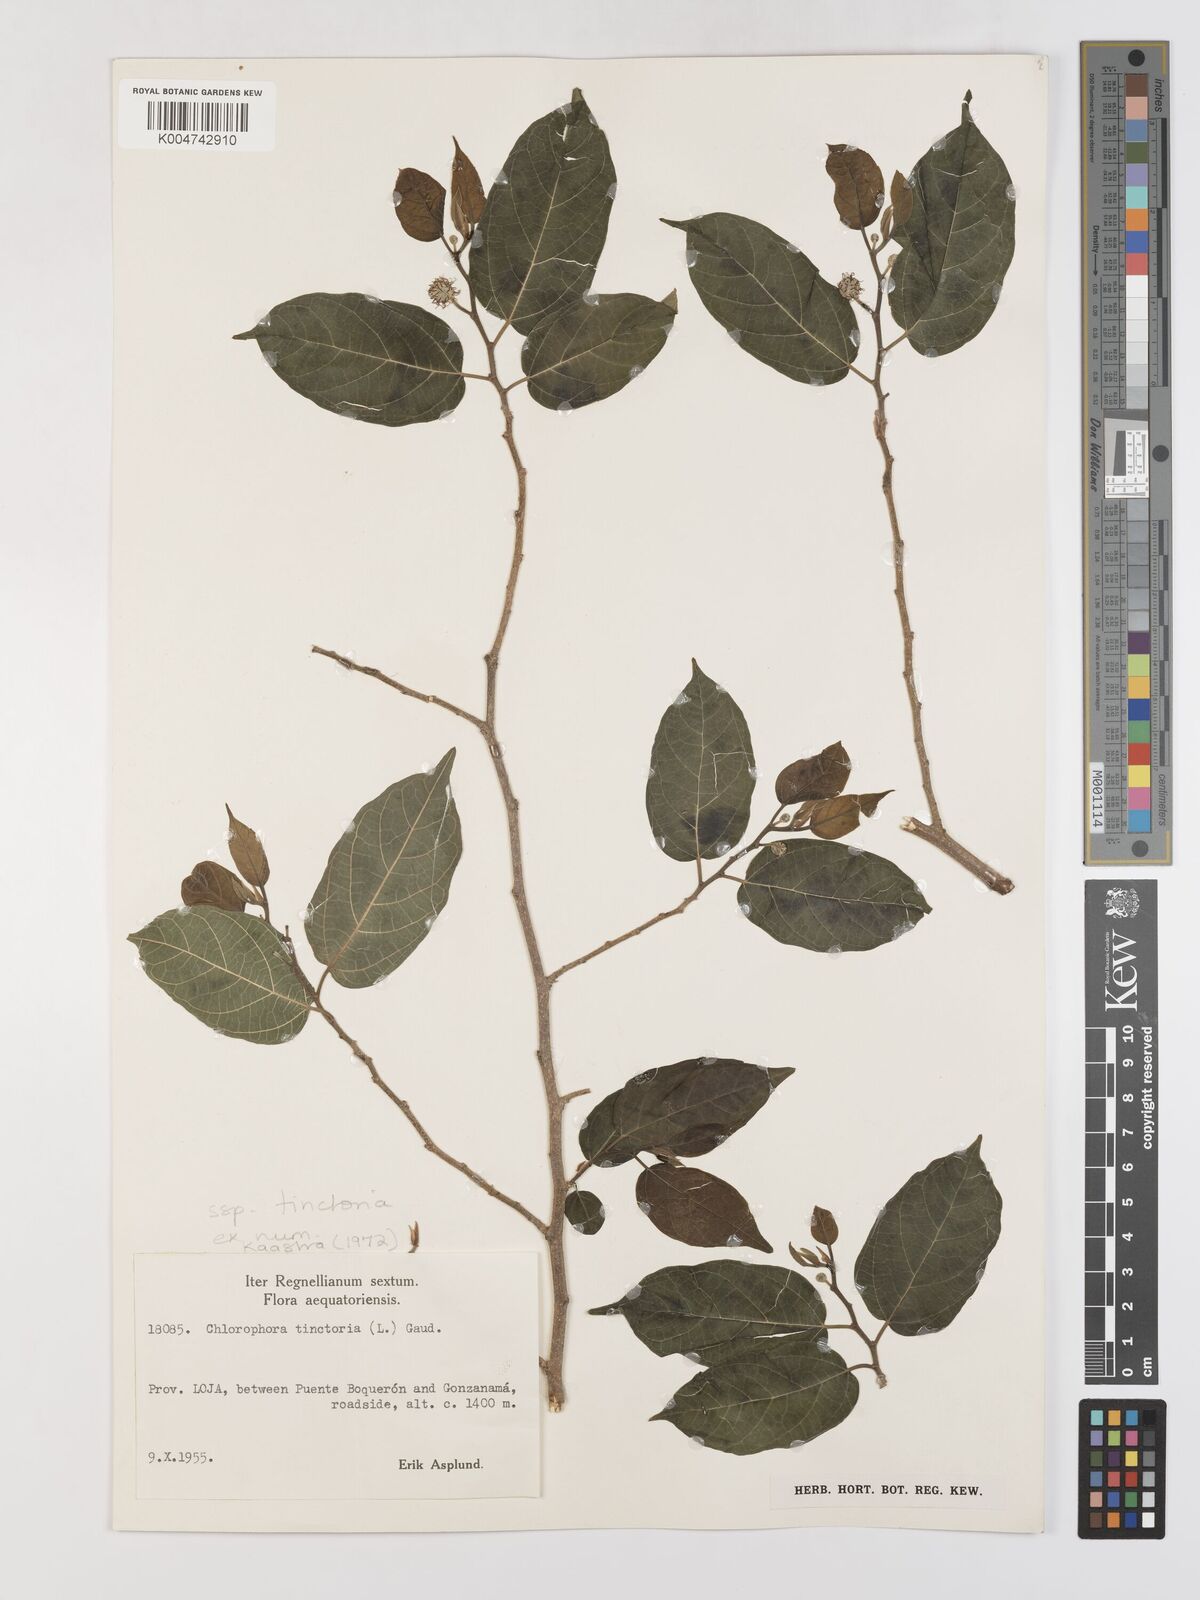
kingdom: Plantae
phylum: Tracheophyta
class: Magnoliopsida
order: Rosales
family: Moraceae
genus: Maclura
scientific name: Maclura tinctoria
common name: Old fustic
